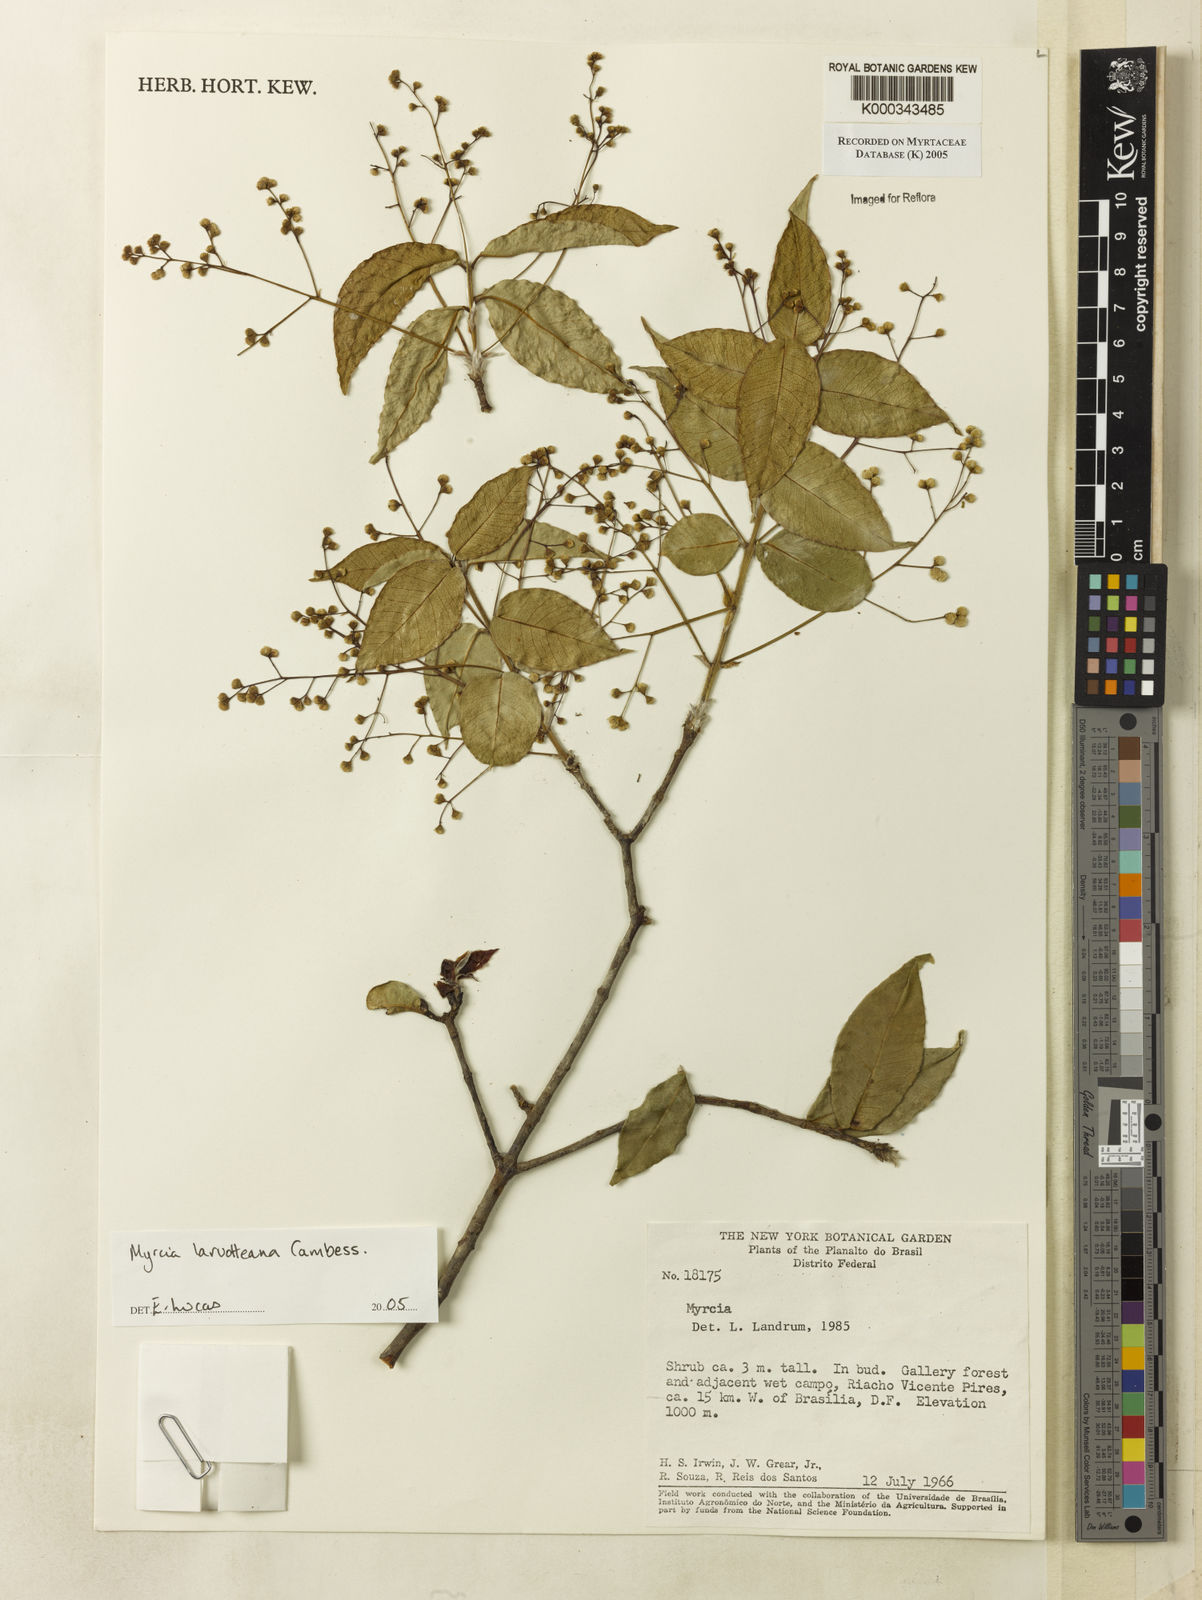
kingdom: Plantae
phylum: Tracheophyta
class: Magnoliopsida
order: Myrtales
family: Myrtaceae
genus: Myrcia
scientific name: Myrcia laruotteana
